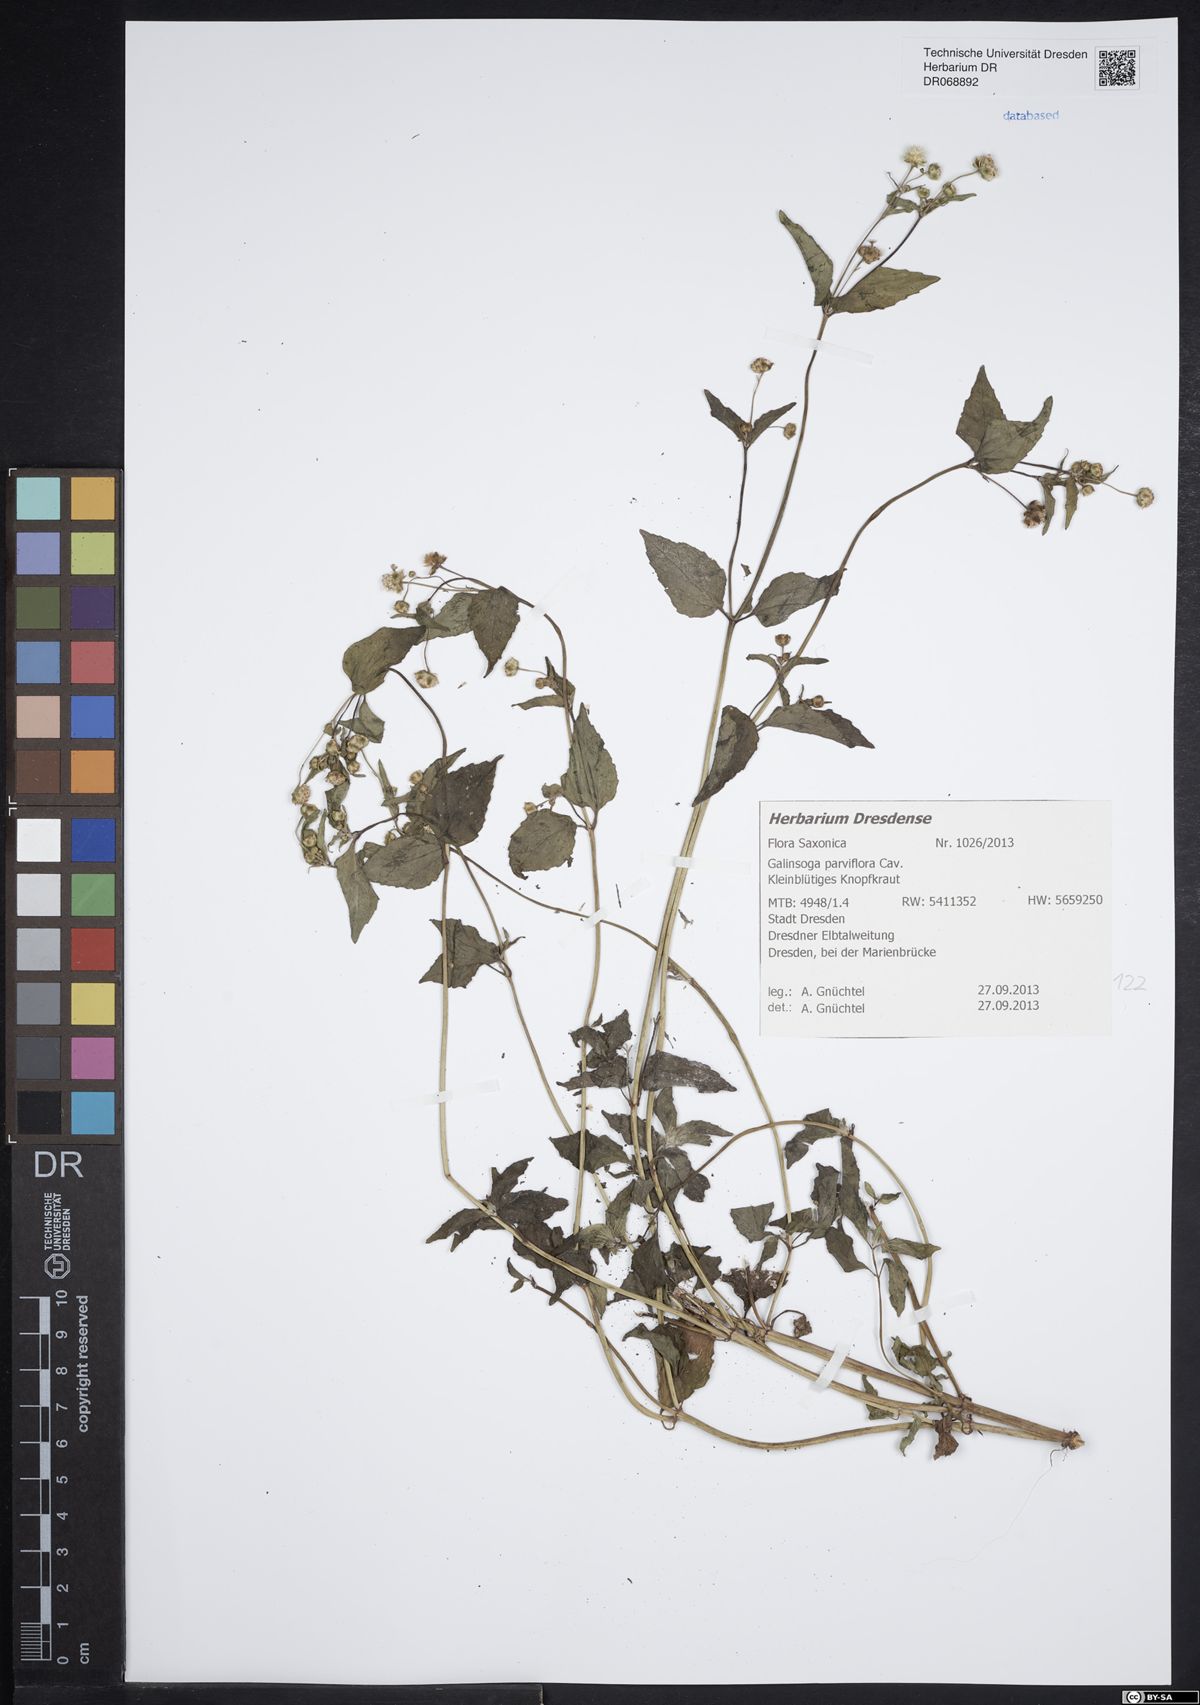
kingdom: Plantae
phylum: Tracheophyta
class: Magnoliopsida
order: Asterales
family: Asteraceae
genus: Galinsoga
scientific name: Galinsoga parviflora
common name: Gallant soldier
